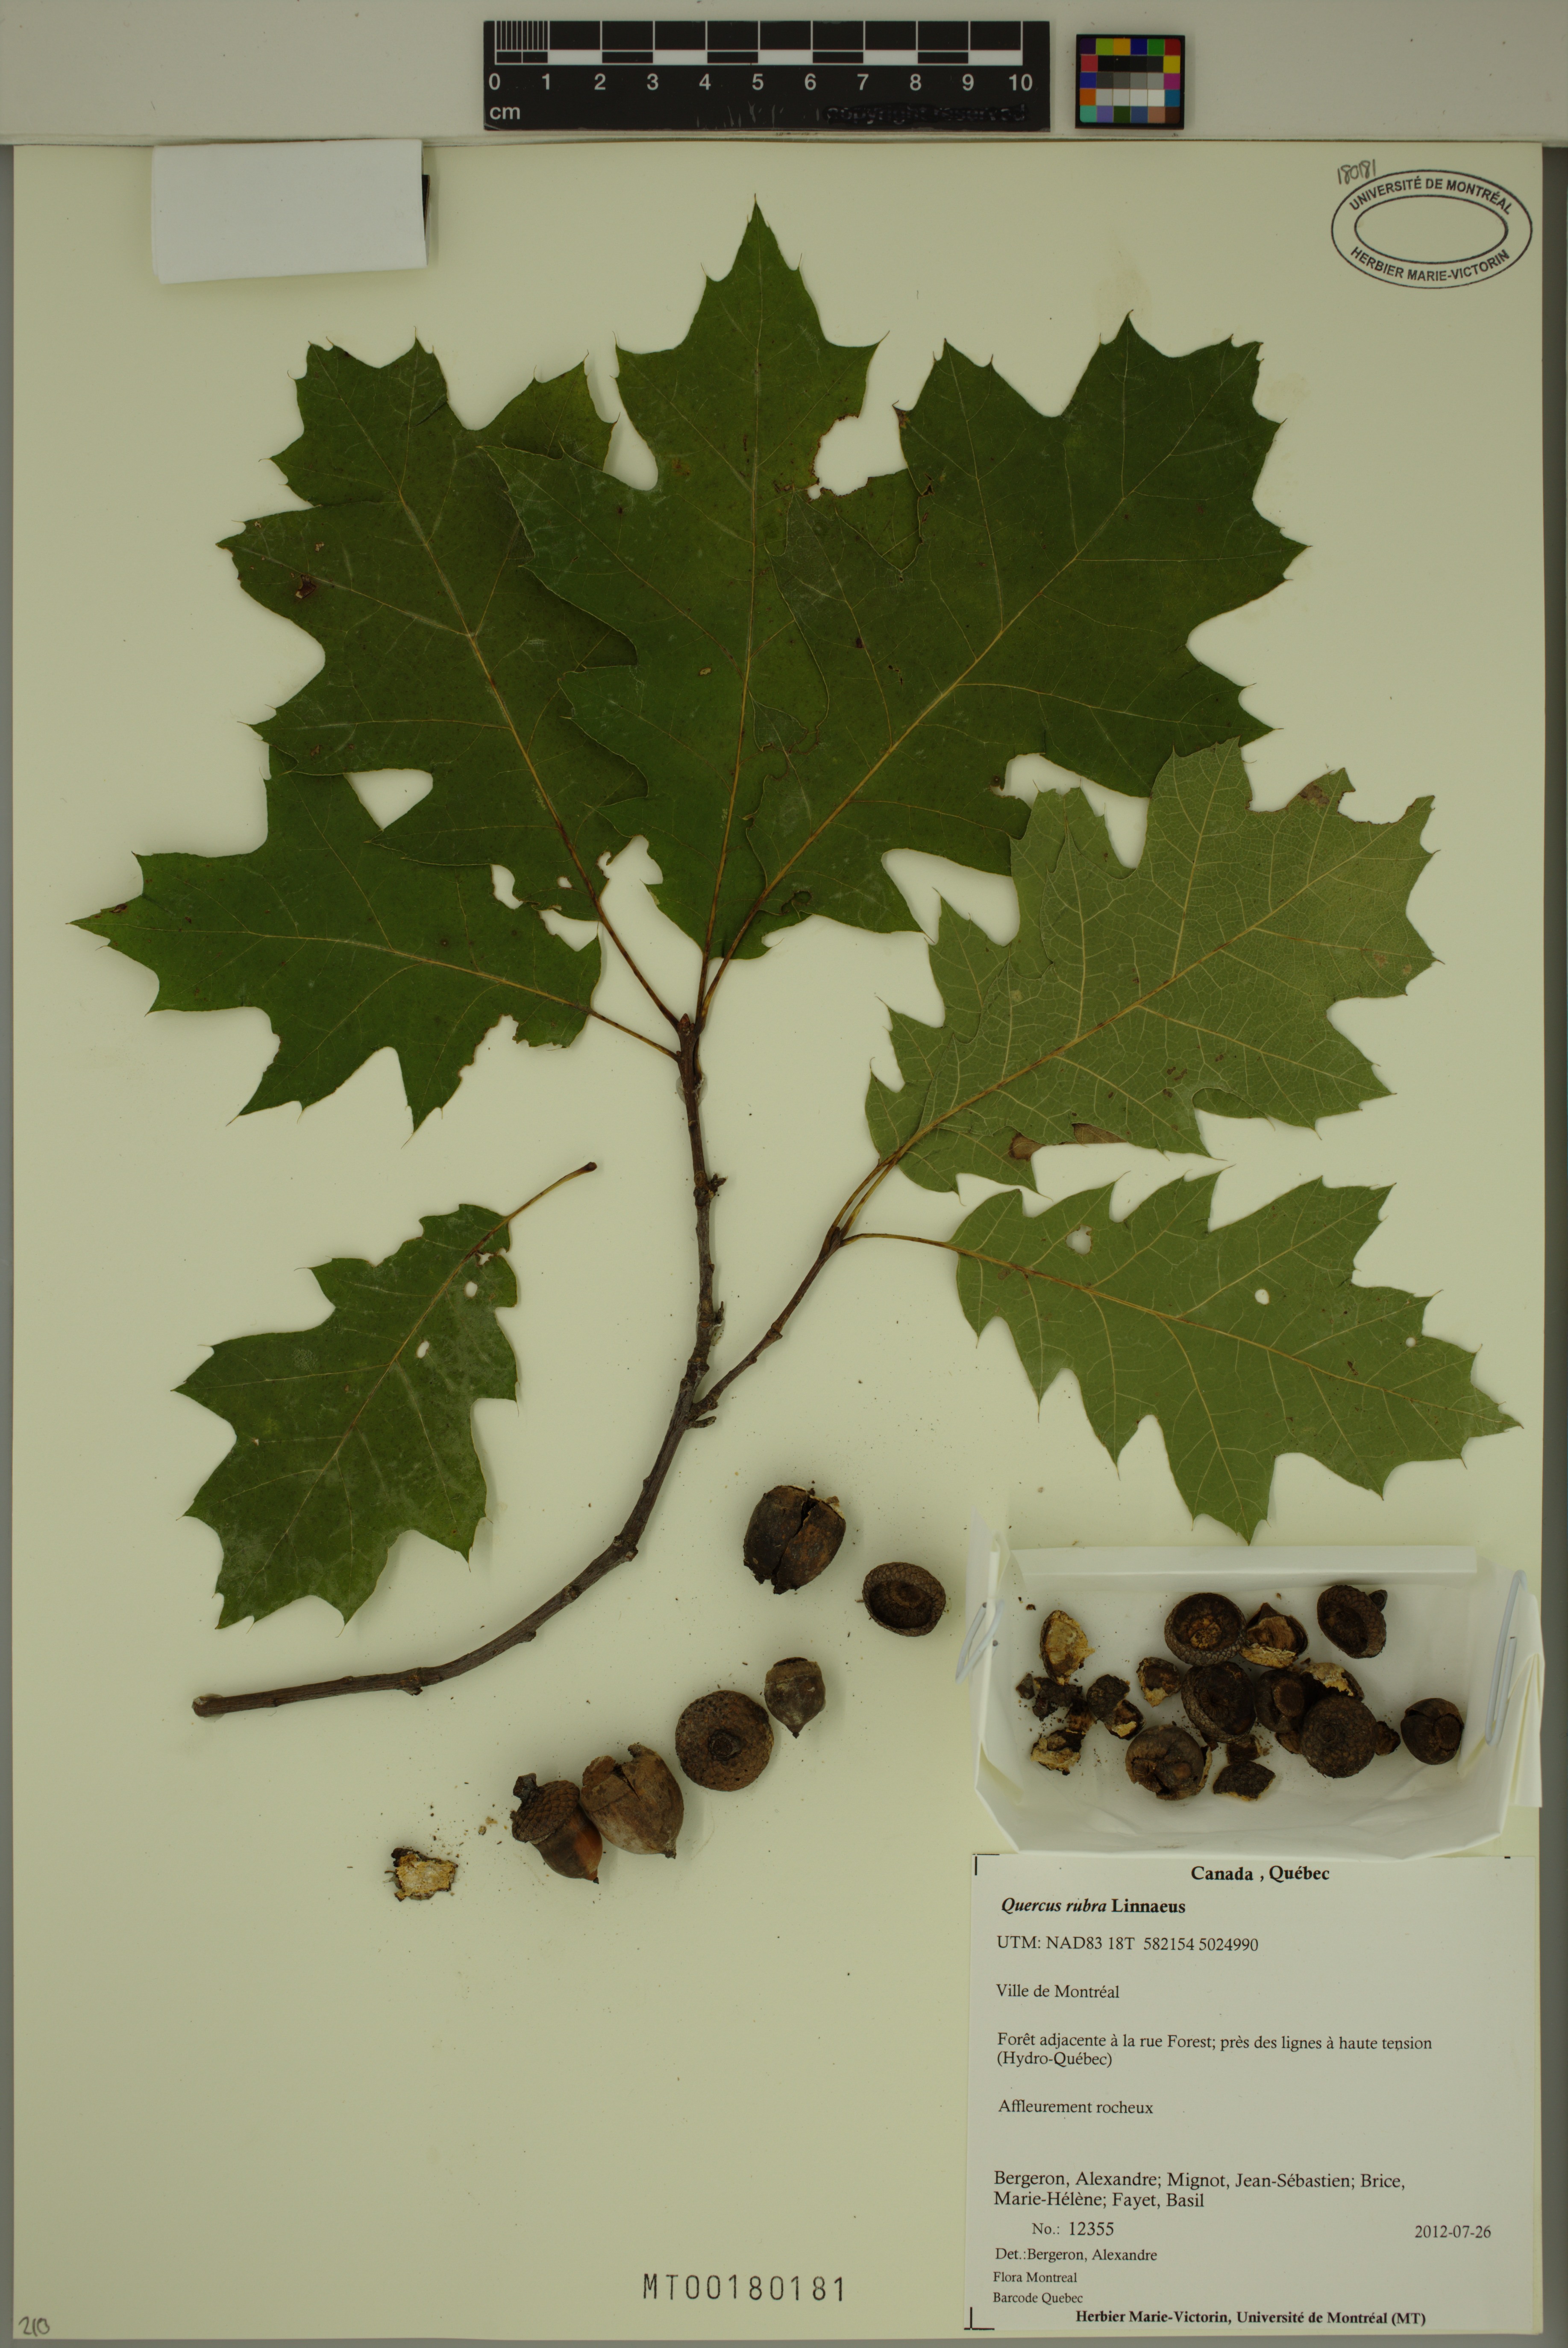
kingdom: Plantae
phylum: Tracheophyta
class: Magnoliopsida
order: Fagales
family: Fagaceae
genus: Quercus
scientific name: Quercus rubra
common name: Red oak
